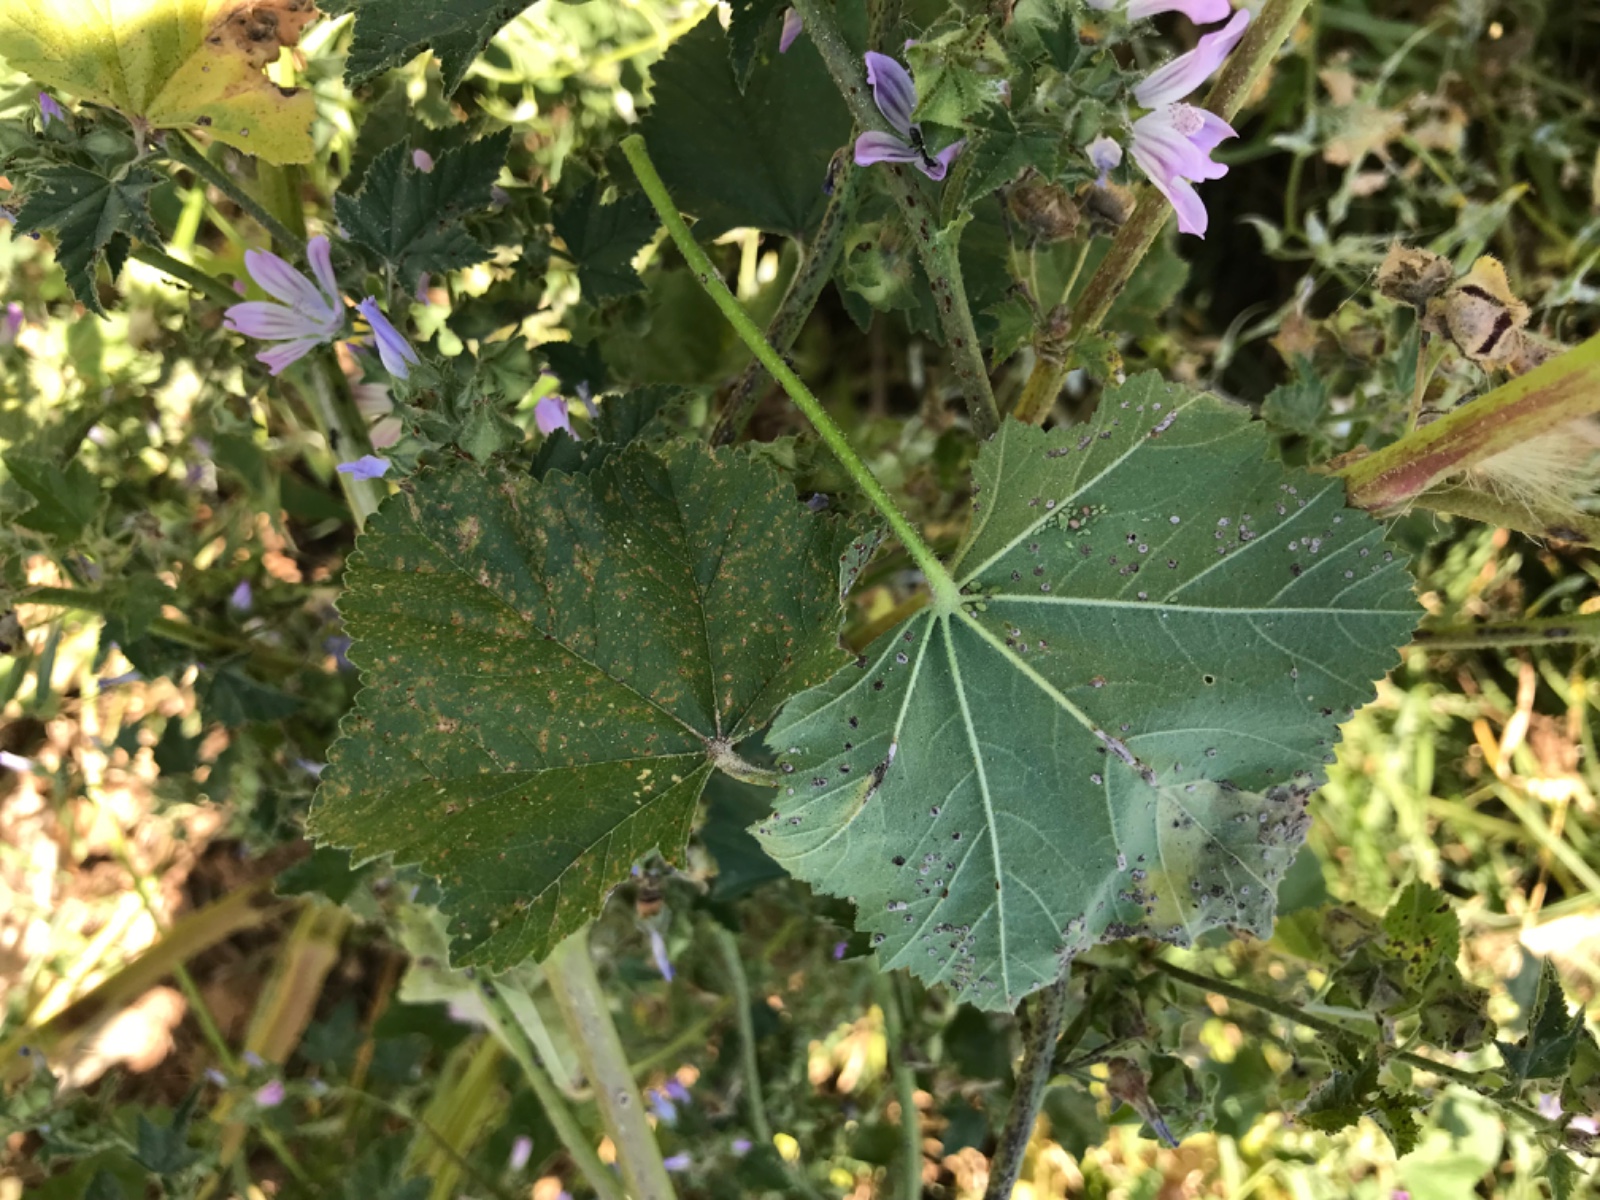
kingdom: Fungi
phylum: Basidiomycota
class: Pucciniomycetes
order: Pucciniales
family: Pucciniaceae
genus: Puccinia
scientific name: Puccinia malvacearum
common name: stokrose-tvecellerust
